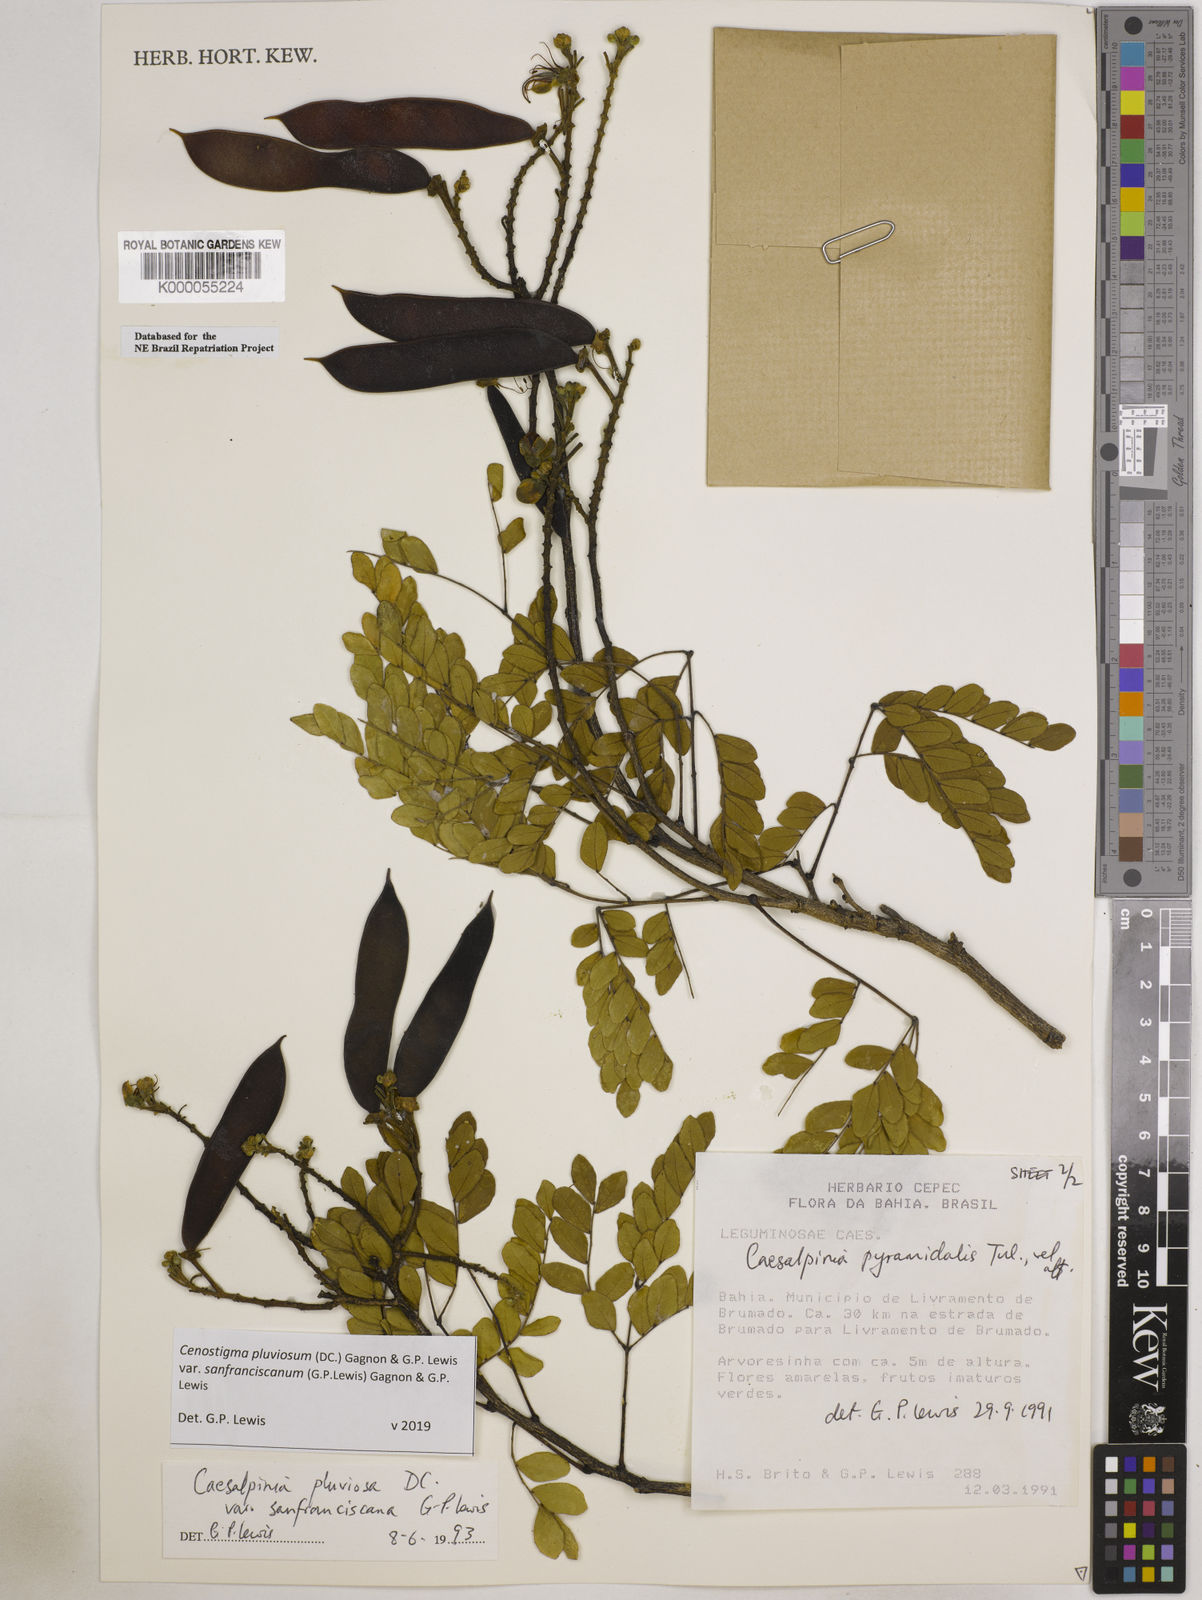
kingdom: Plantae
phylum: Tracheophyta
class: Magnoliopsida
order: Fabales
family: Fabaceae
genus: Cenostigma
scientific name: Cenostigma pluviosum
